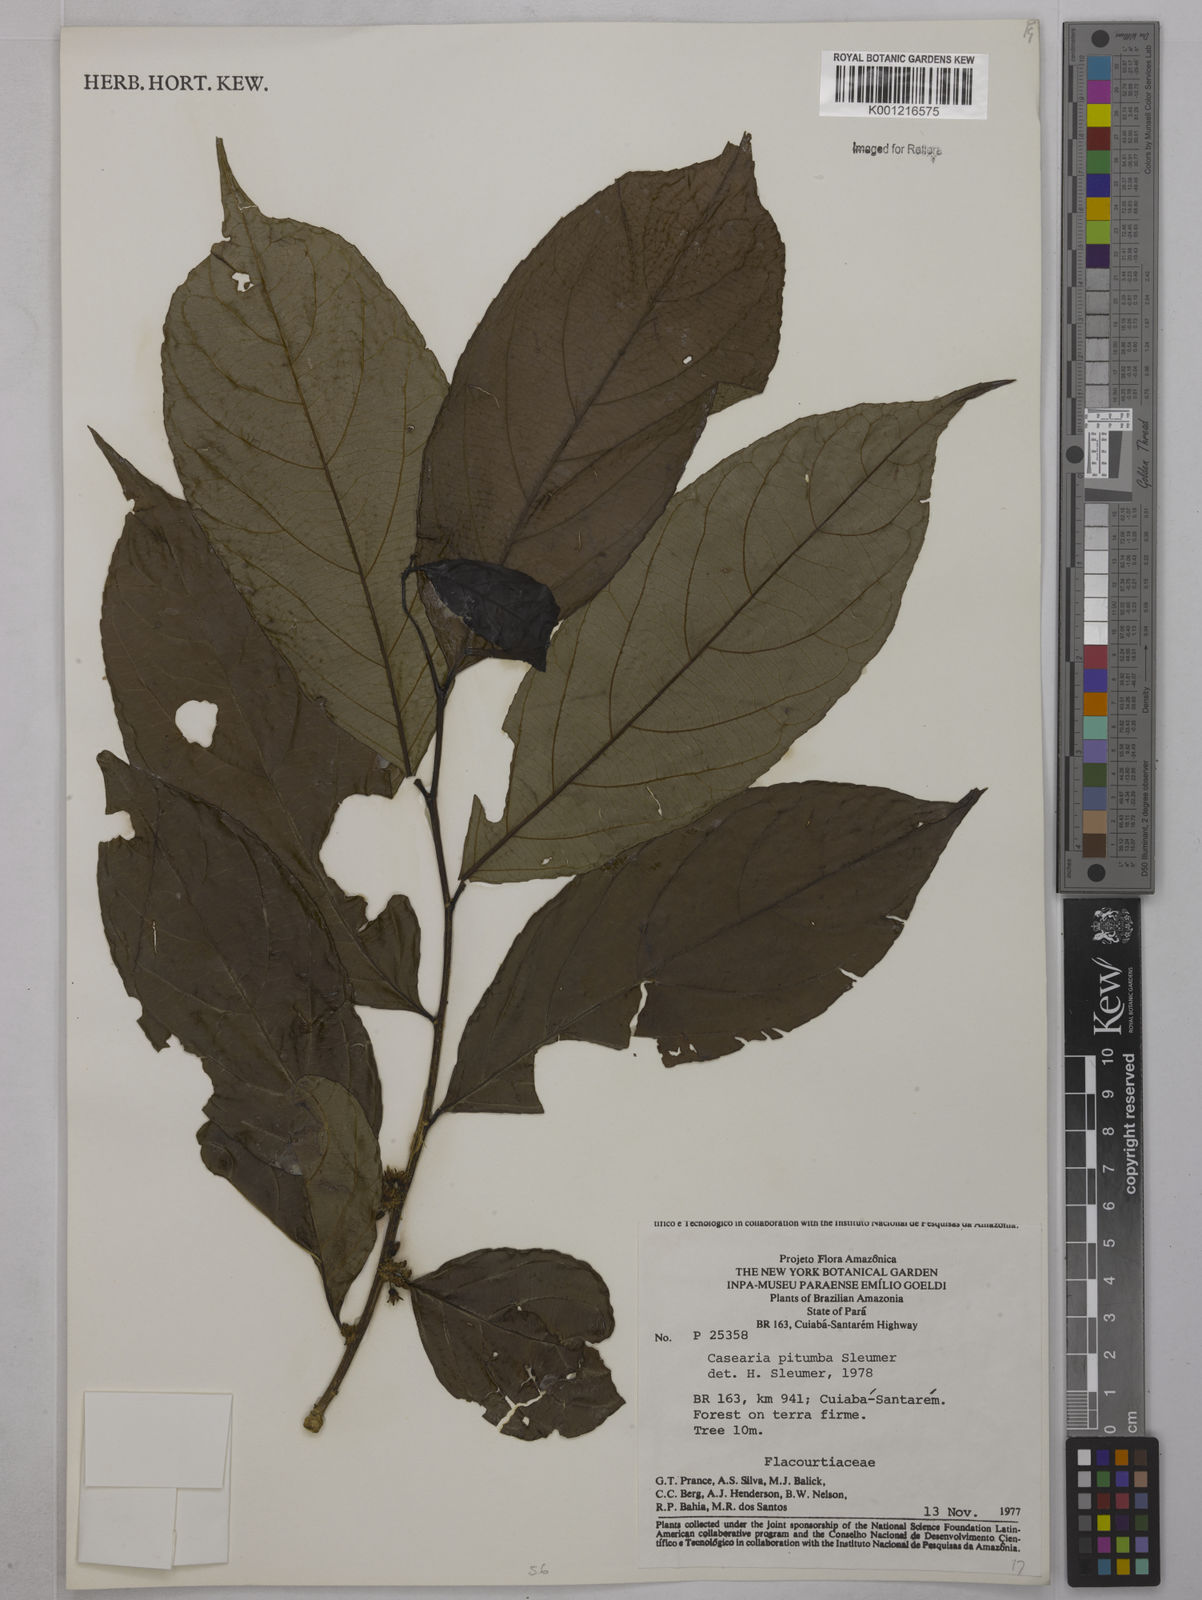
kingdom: Plantae
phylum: Tracheophyta
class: Magnoliopsida
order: Malpighiales
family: Salicaceae
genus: Casearia
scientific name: Casearia pitumba
